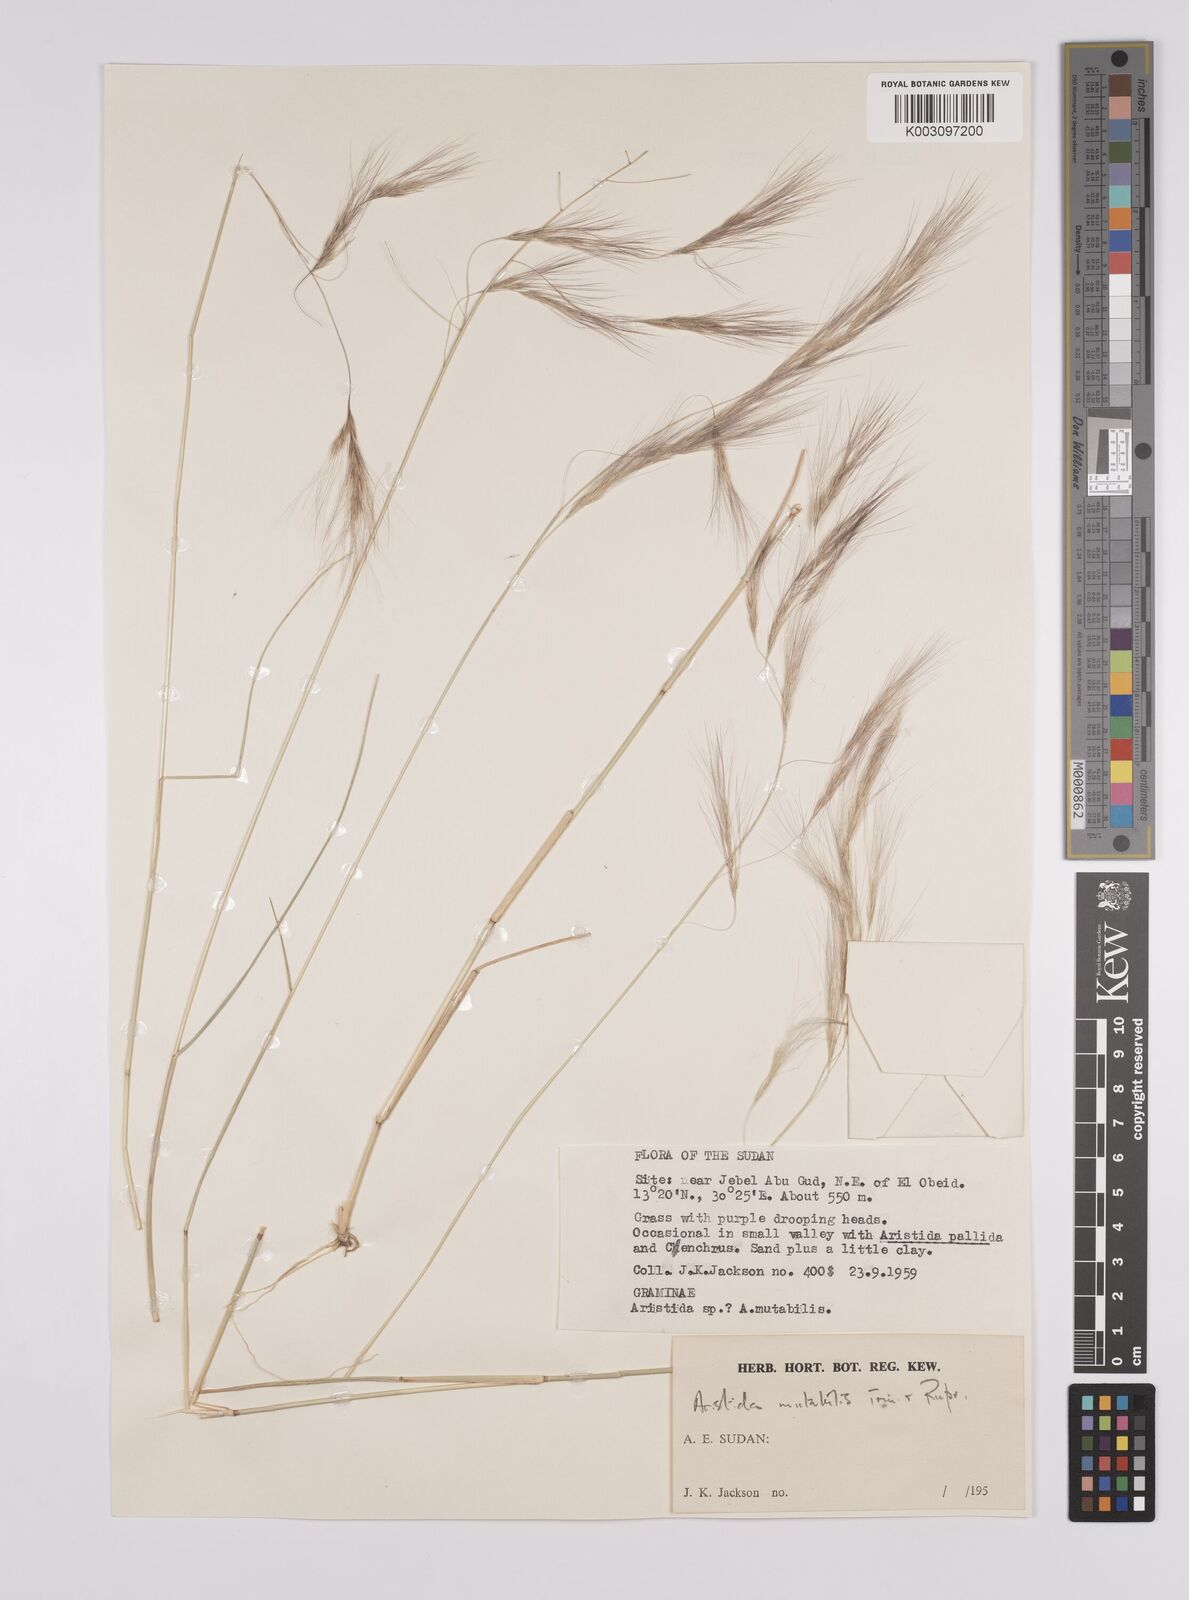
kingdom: Plantae
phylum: Tracheophyta
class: Liliopsida
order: Poales
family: Poaceae
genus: Aristida
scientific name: Aristida mutabilis
